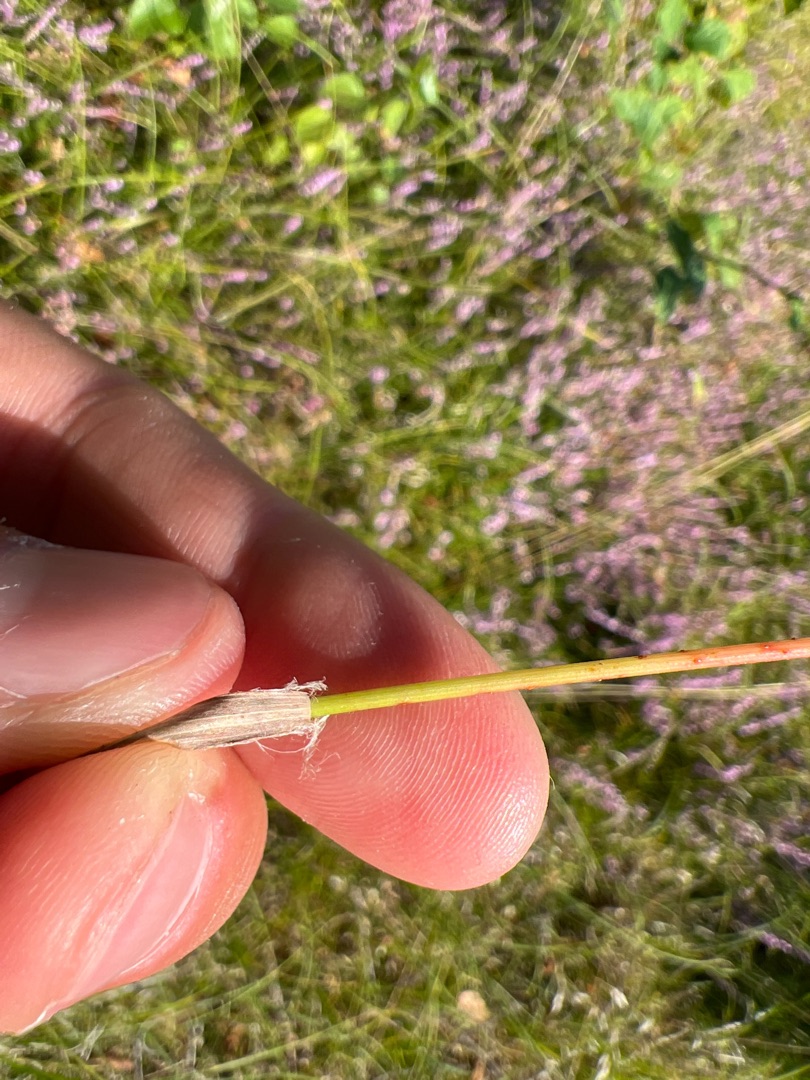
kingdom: Plantae
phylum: Tracheophyta
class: Liliopsida
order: Poales
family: Juncaceae
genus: Luzula
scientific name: Luzula congesta
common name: Hoved-frytle
